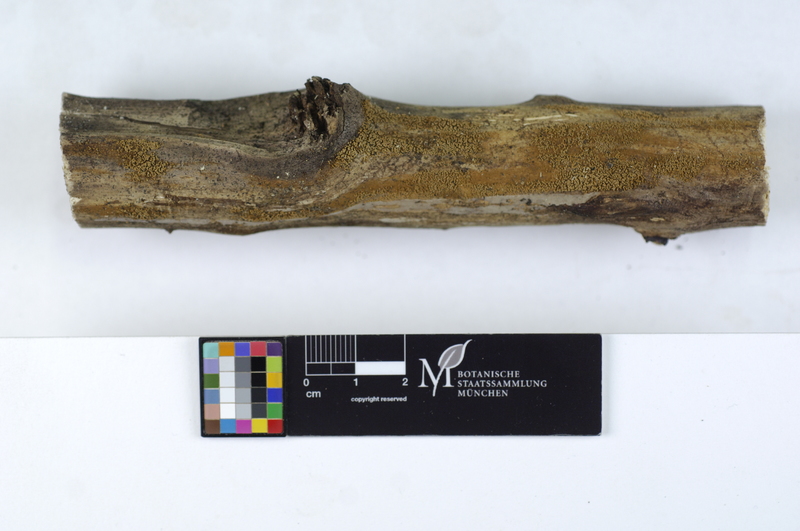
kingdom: Fungi
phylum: Basidiomycota
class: Agaricomycetes
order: Agaricales
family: Niaceae
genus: Merismodes
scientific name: Merismodes anomala
